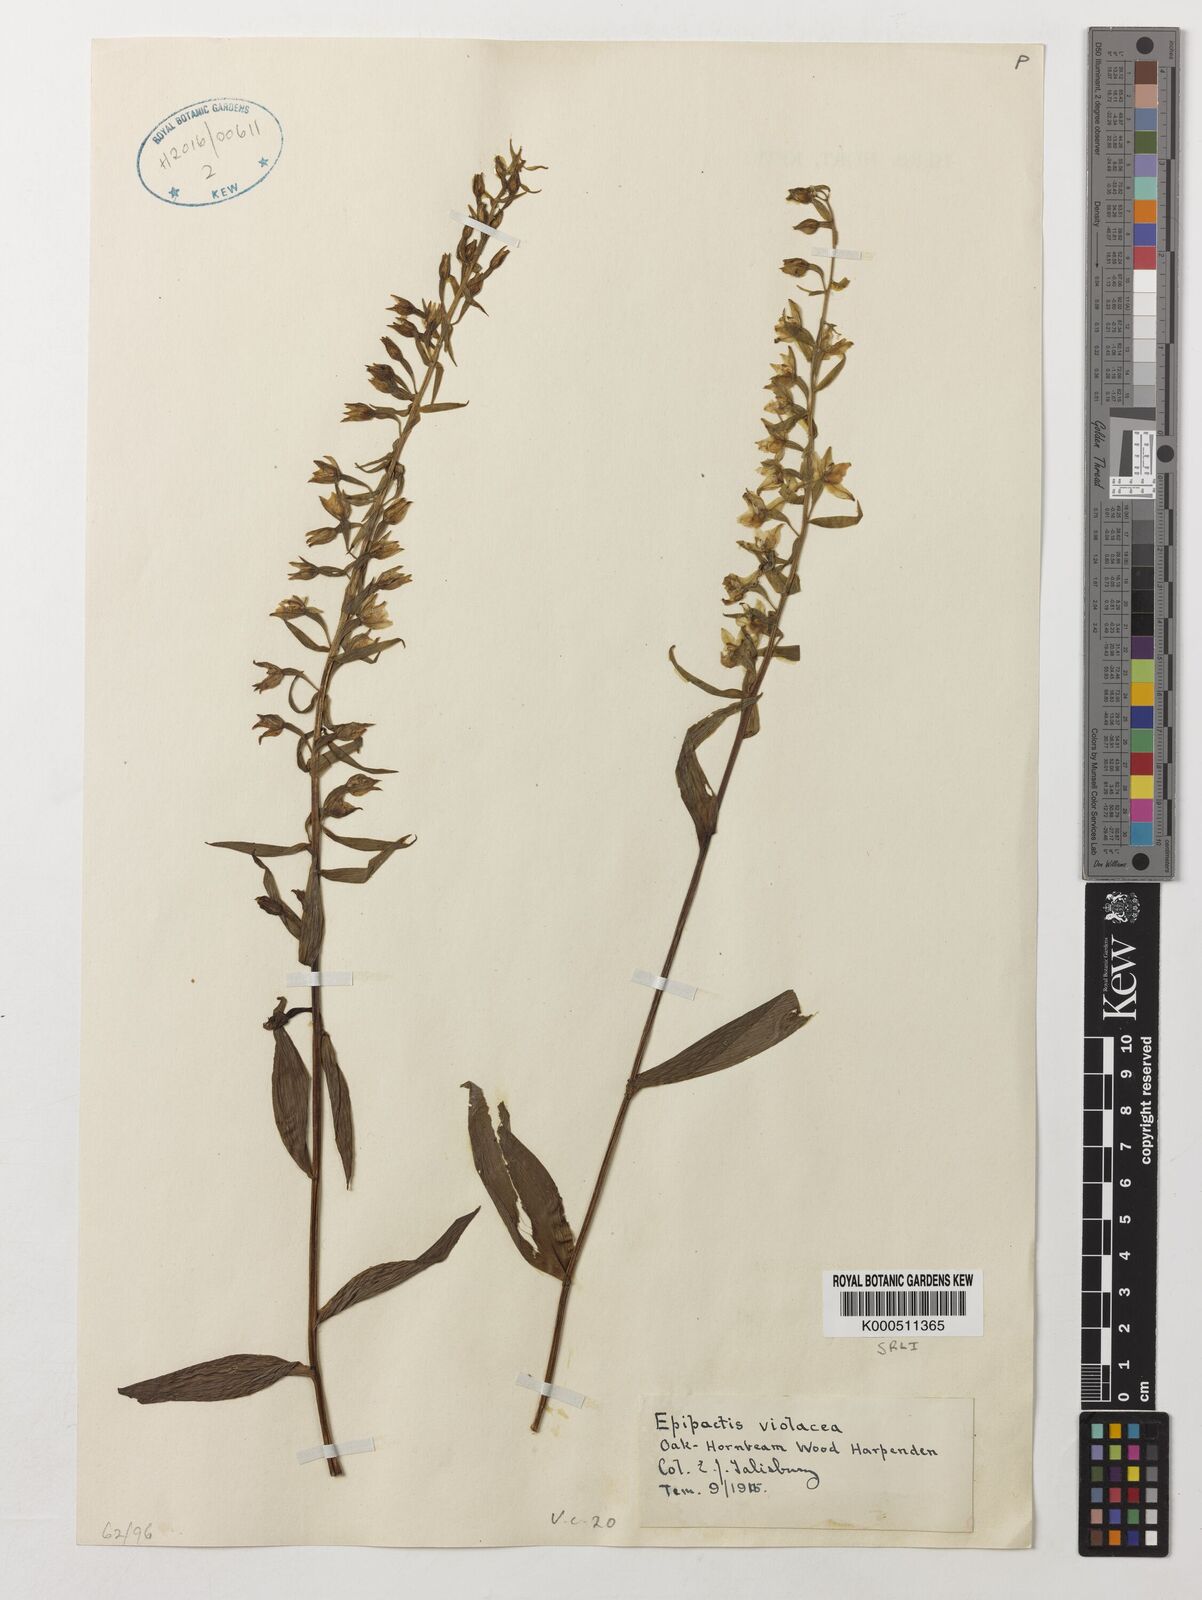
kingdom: Plantae
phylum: Tracheophyta
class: Liliopsida
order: Asparagales
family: Orchidaceae
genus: Epipactis
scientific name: Epipactis purpurata
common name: Violet helleborine
